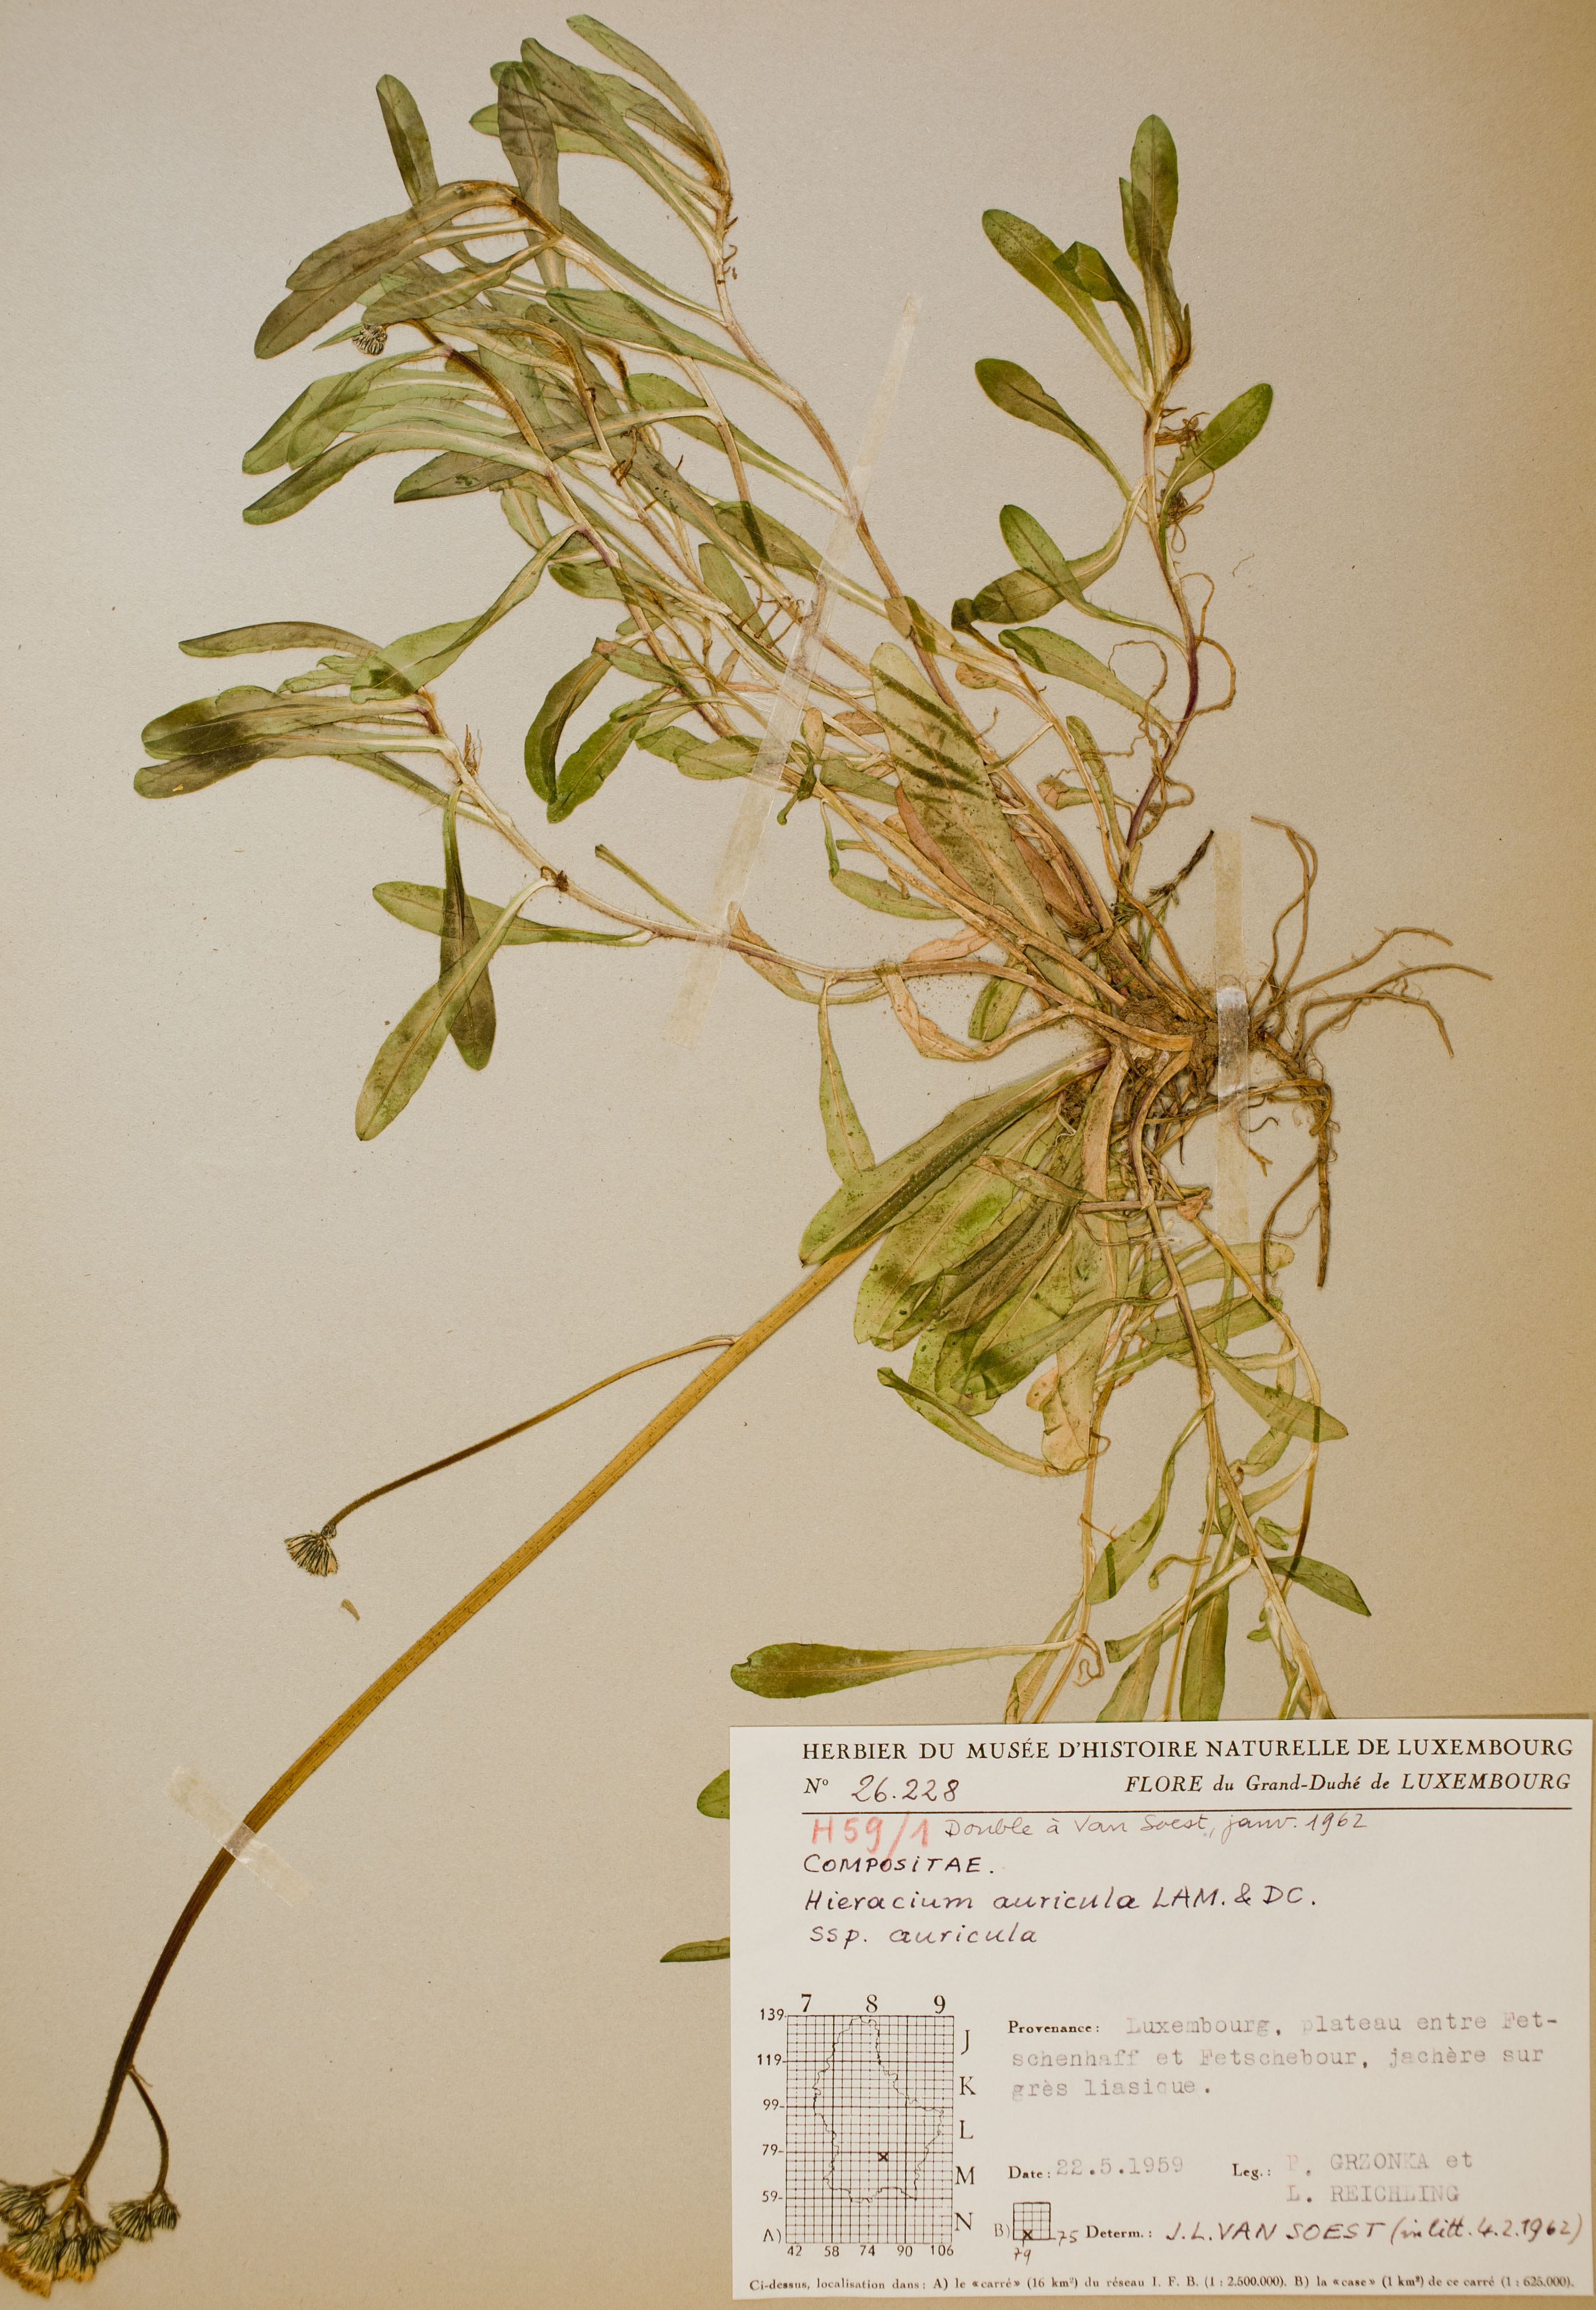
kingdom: Plantae
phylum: Tracheophyta
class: Magnoliopsida
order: Asterales
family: Asteraceae
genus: Hieracium
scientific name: Hieracium auricula
